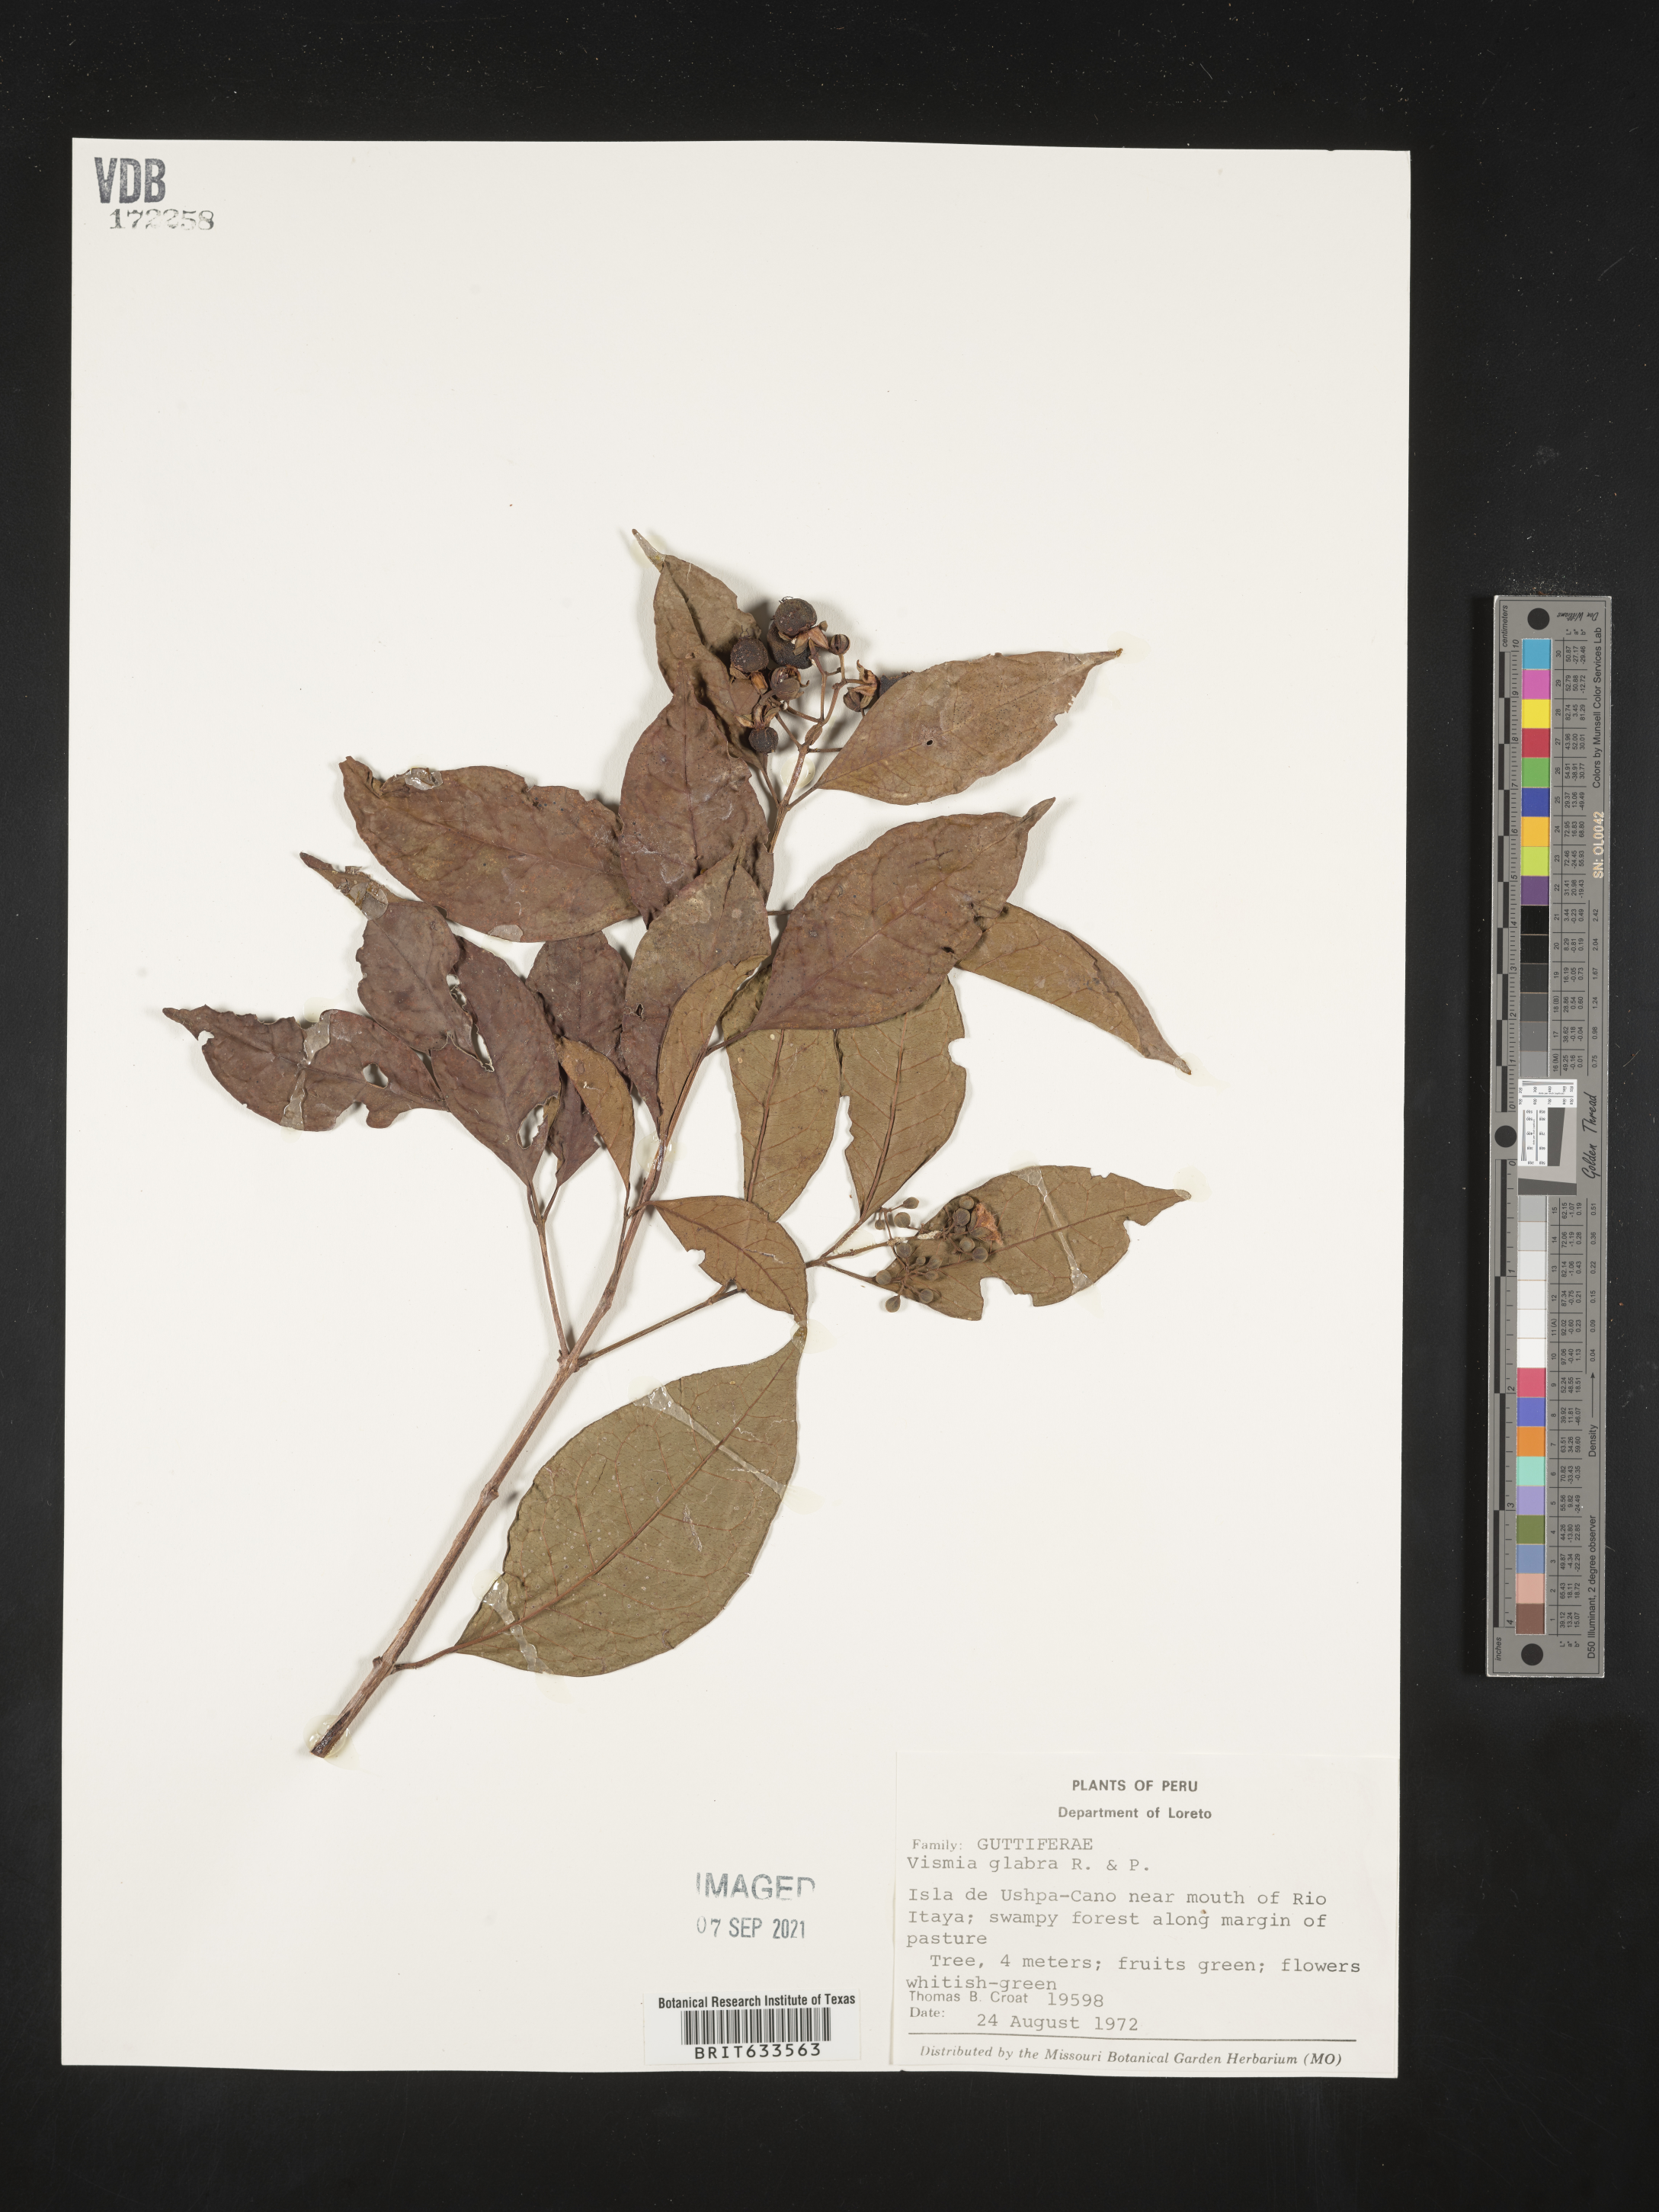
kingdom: Plantae
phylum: Tracheophyta
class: Magnoliopsida
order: Malpighiales
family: Hypericaceae
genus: Vismia
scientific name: Vismia
